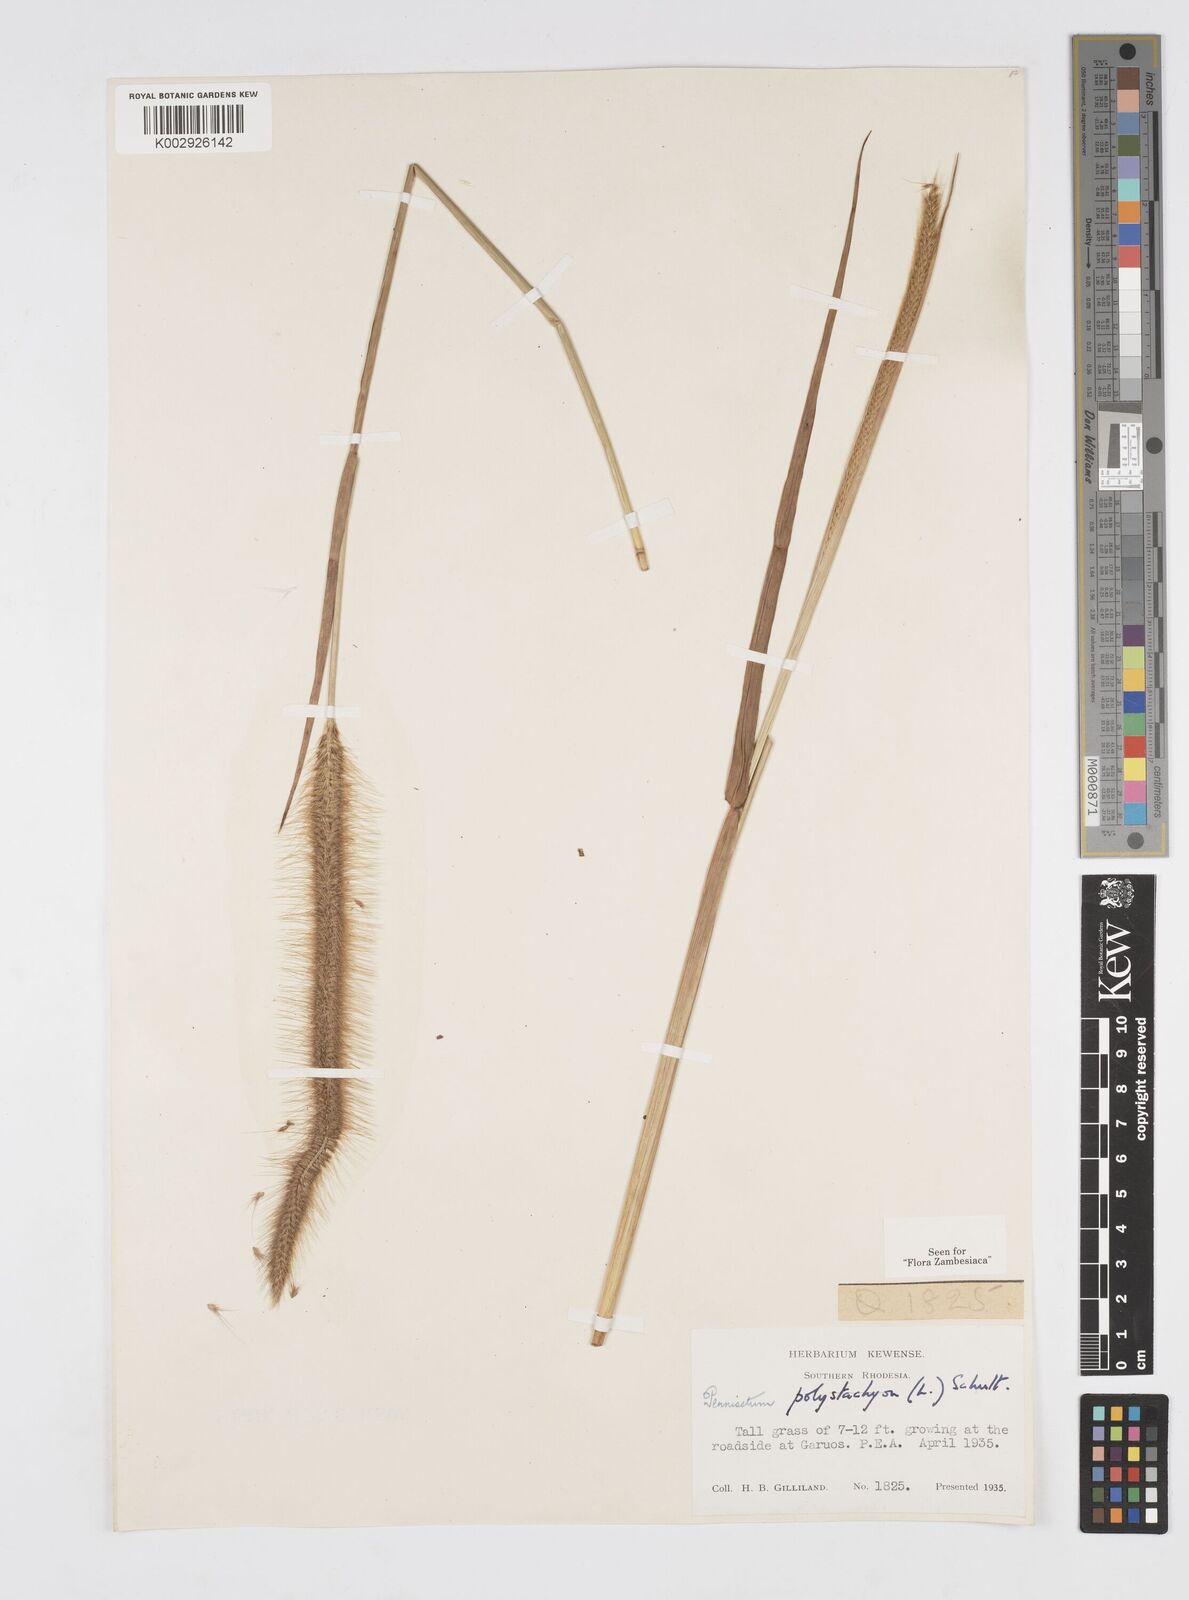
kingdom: Plantae
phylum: Tracheophyta
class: Liliopsida
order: Poales
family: Poaceae
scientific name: Poaceae
